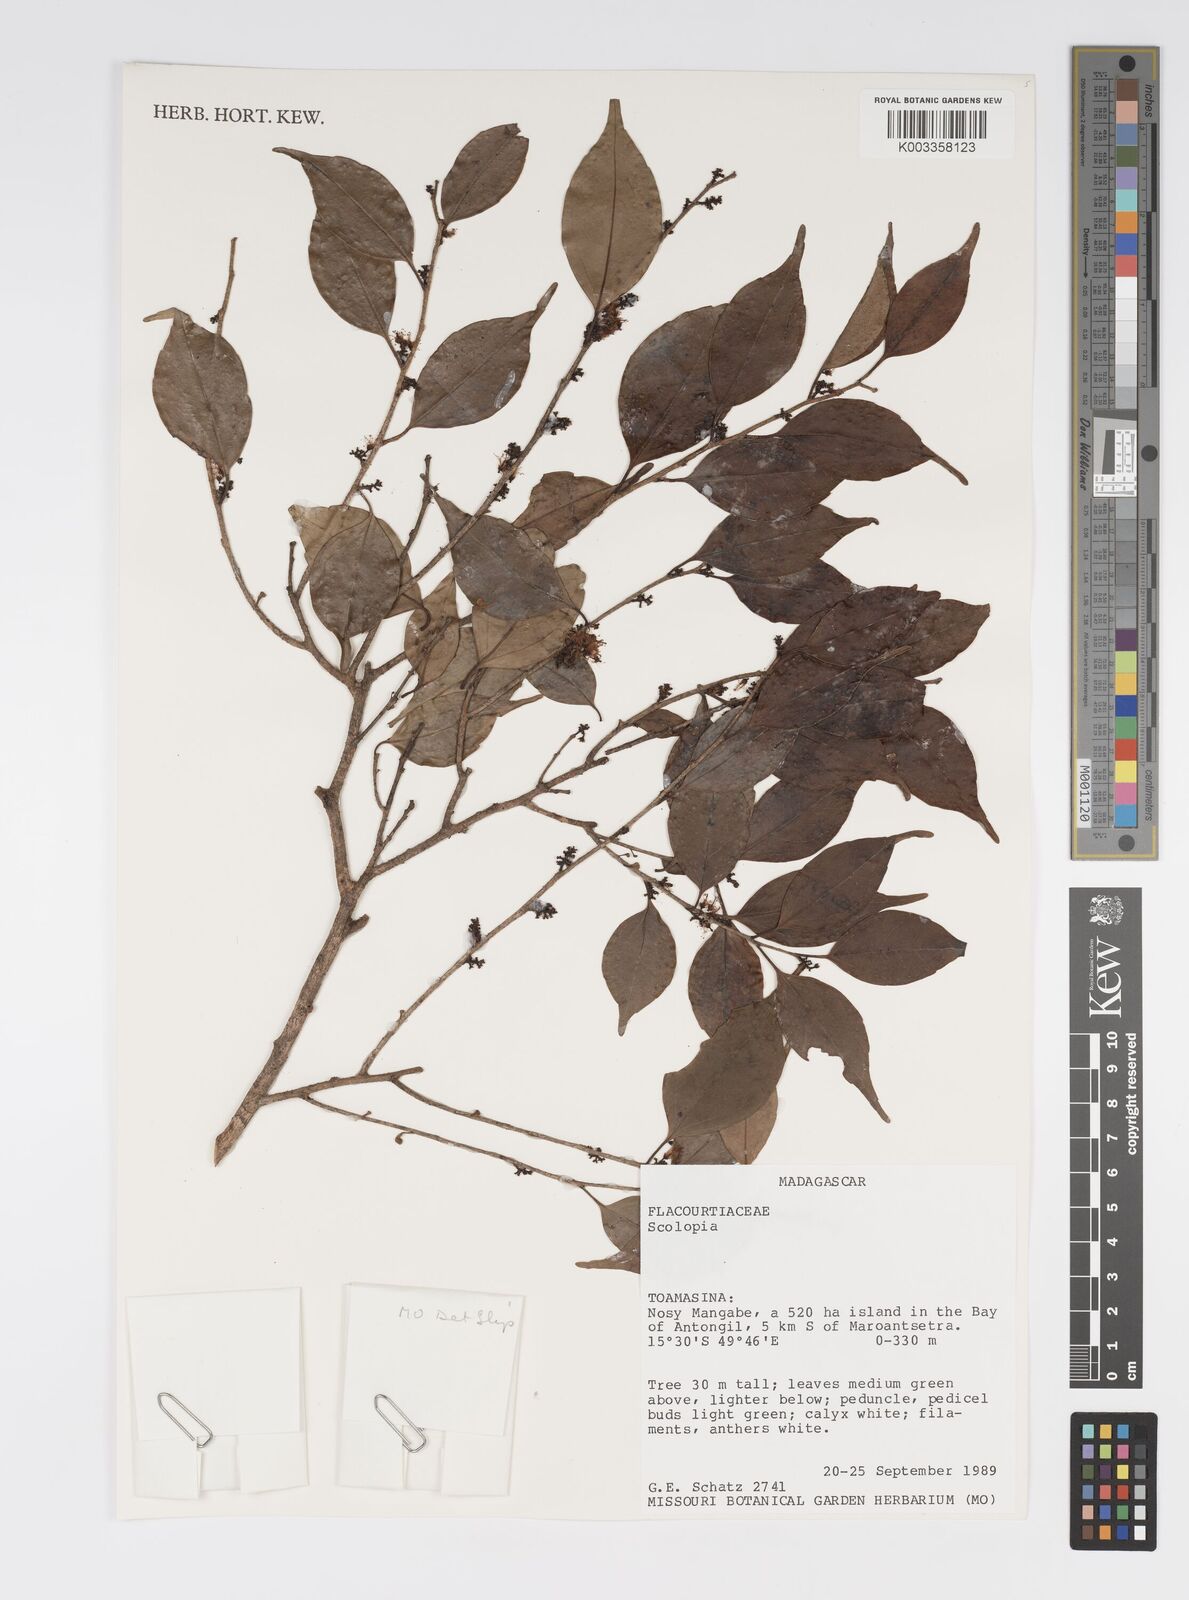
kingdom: Plantae
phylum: Tracheophyta
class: Magnoliopsida
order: Malpighiales
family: Salicaceae
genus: Scolopia
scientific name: Scolopia
